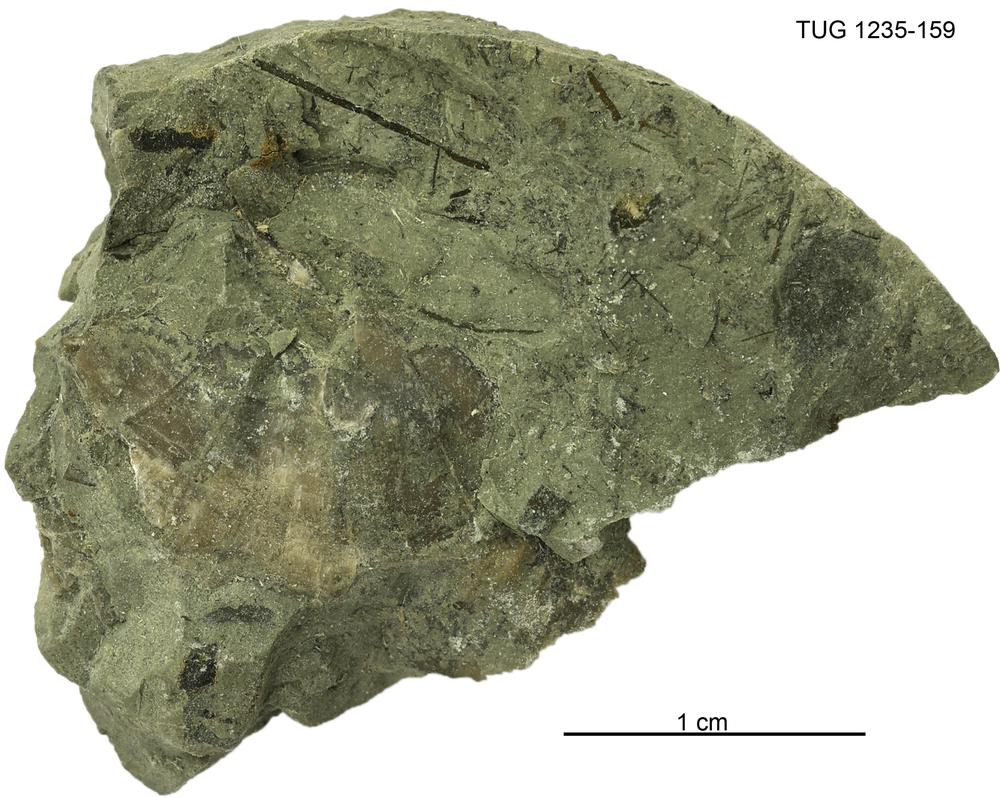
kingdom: Animalia
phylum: Brachiopoda
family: Oldhaminidae
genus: Eoplectodonta
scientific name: Eoplectodonta
